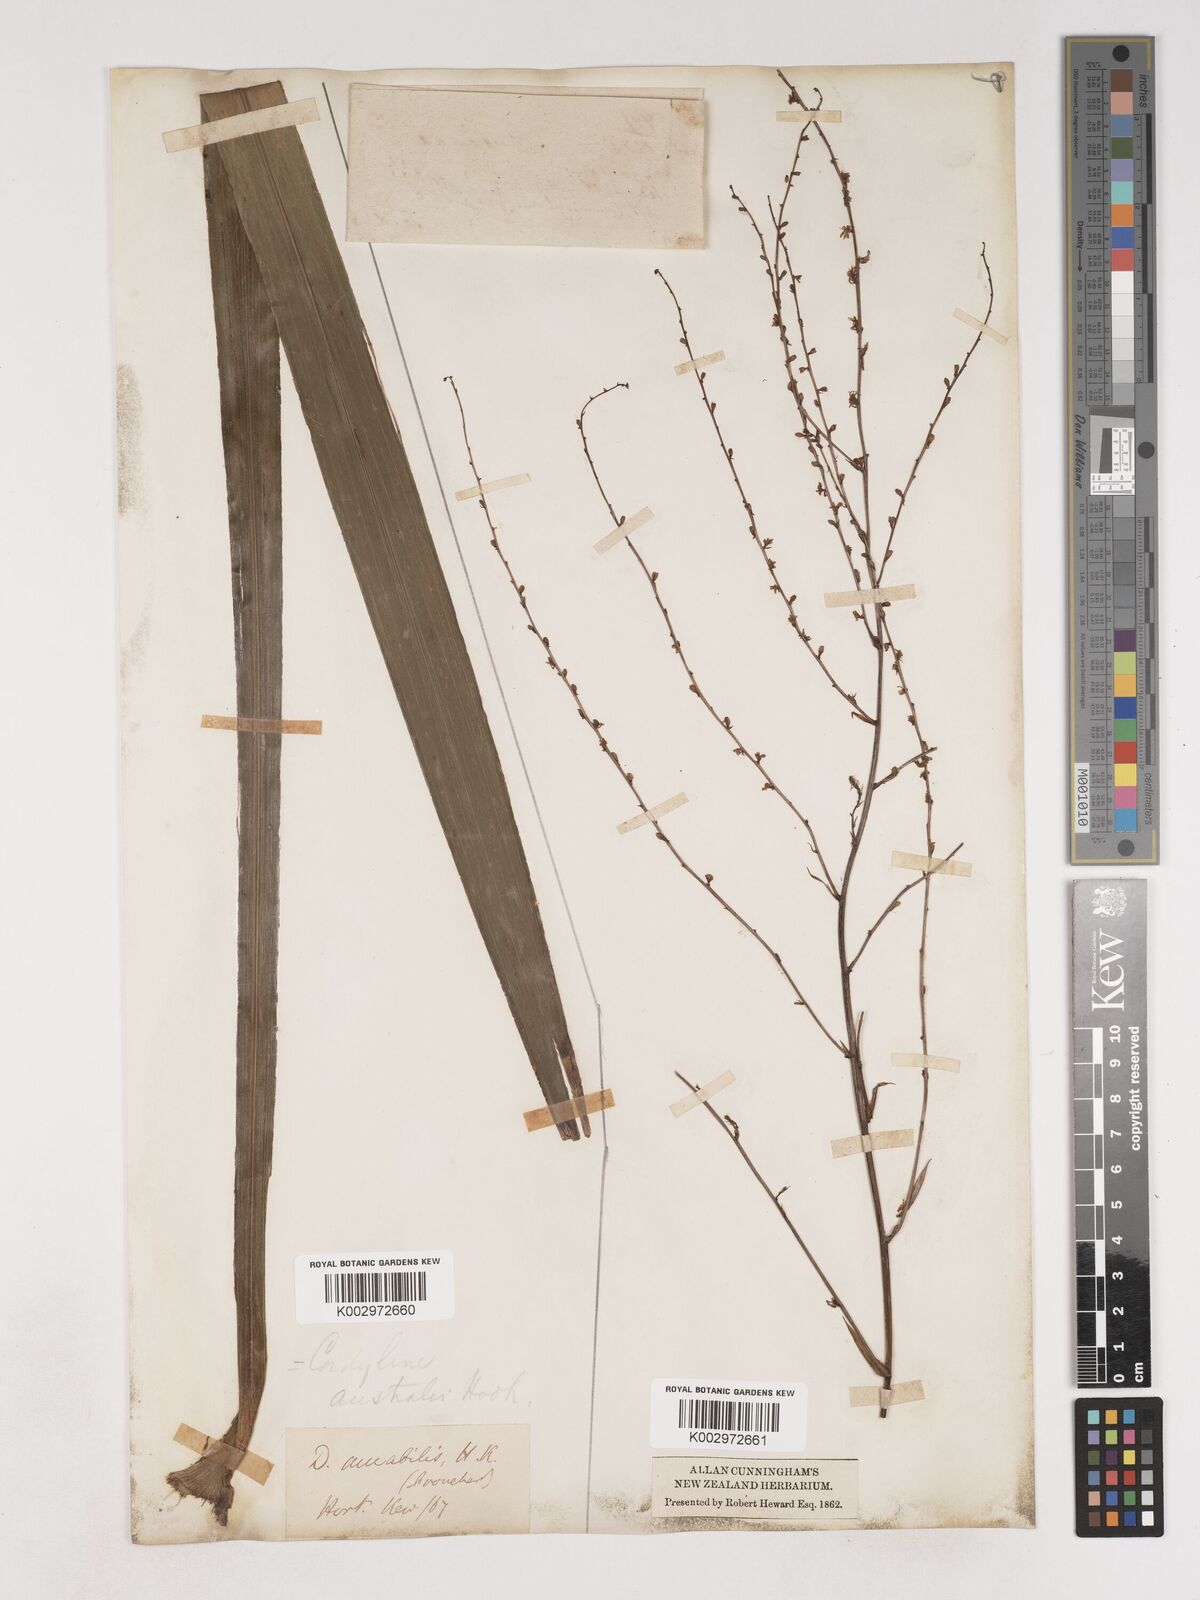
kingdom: Plantae
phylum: Tracheophyta
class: Liliopsida
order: Asparagales
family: Asparagaceae
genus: Cordyline
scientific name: Cordyline australis
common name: Cabbage-palm
